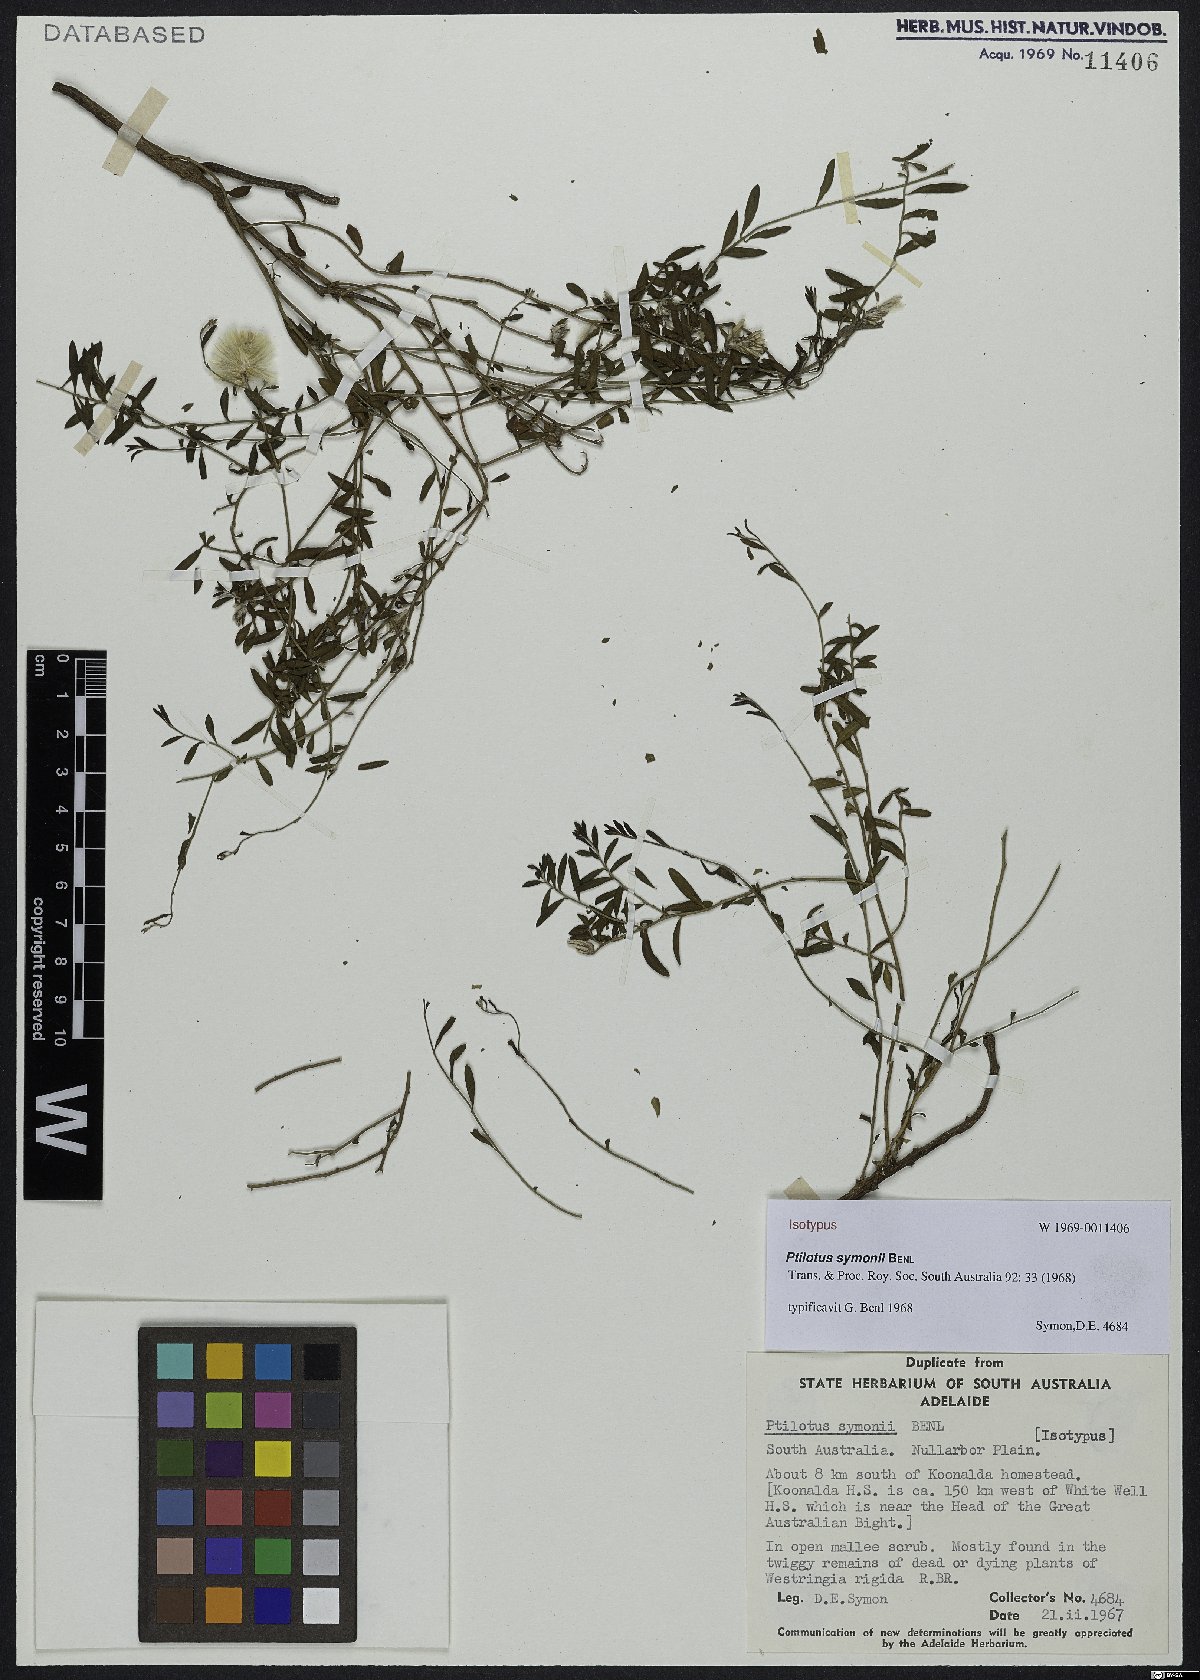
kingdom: Plantae
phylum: Tracheophyta
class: Magnoliopsida
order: Caryophyllales
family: Amaranthaceae
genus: Ptilotus
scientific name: Ptilotus symonii
